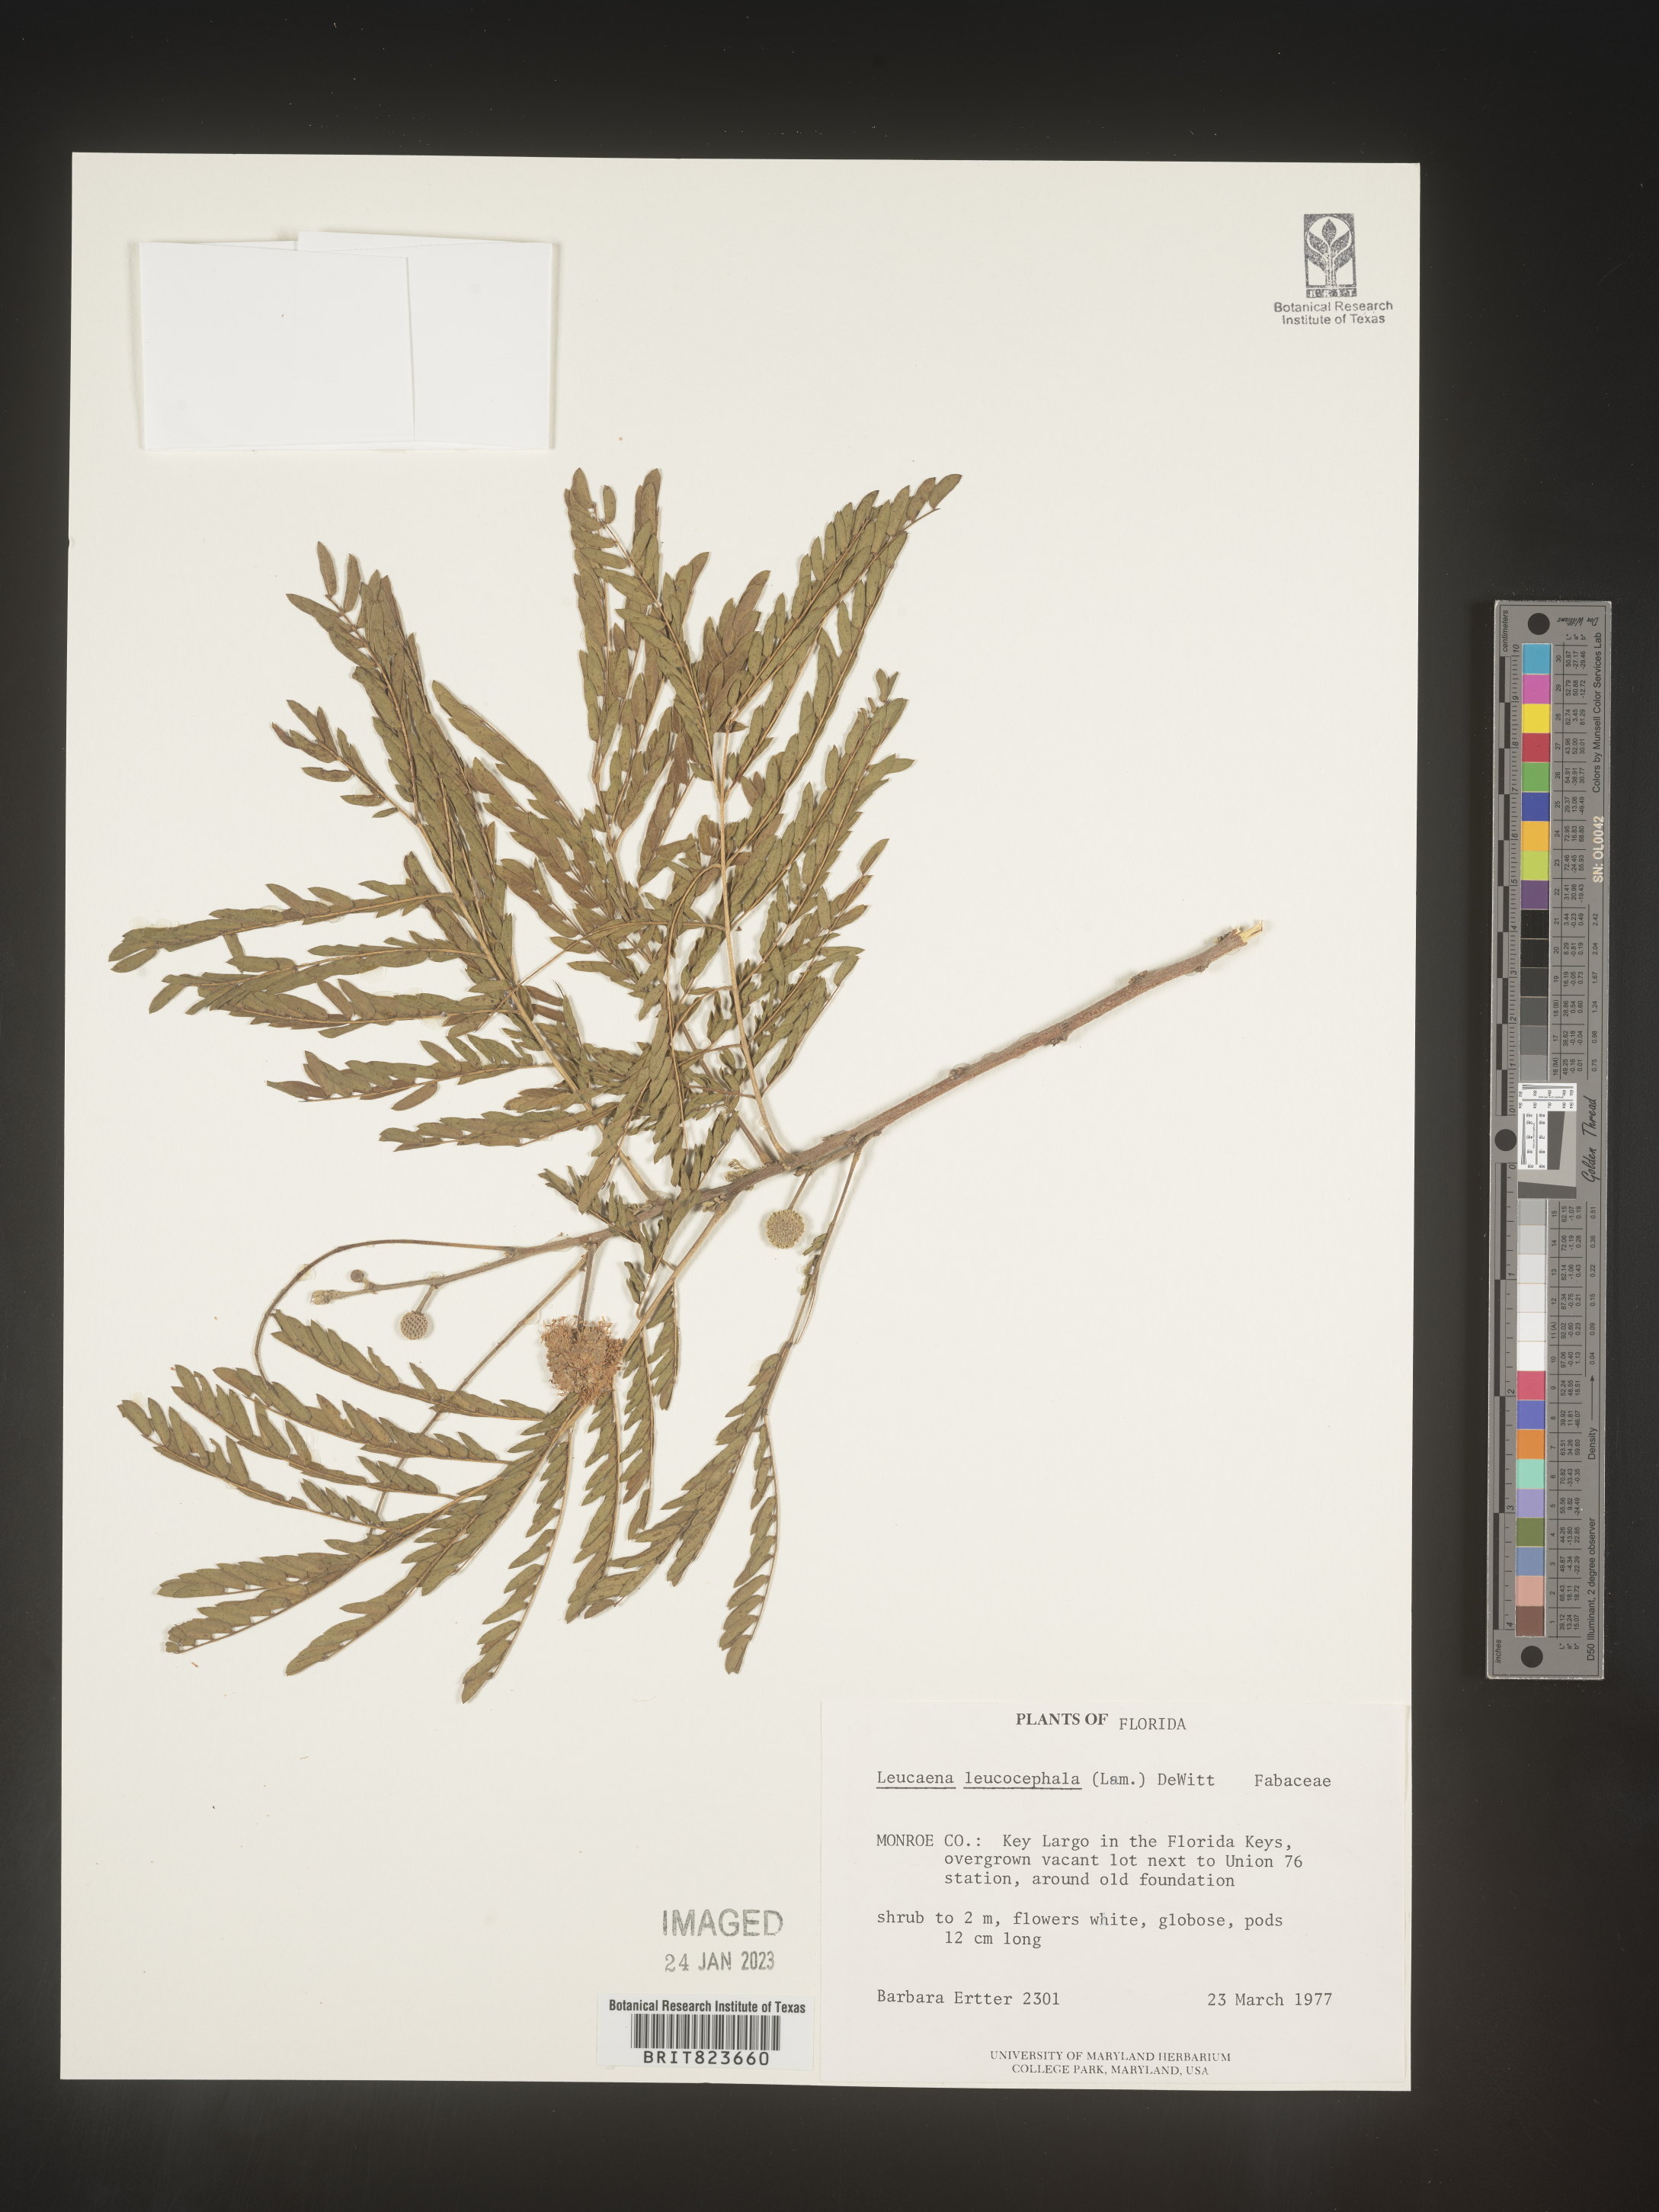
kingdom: Plantae
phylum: Tracheophyta
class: Magnoliopsida
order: Fabales
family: Fabaceae
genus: Leucaena
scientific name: Leucaena
